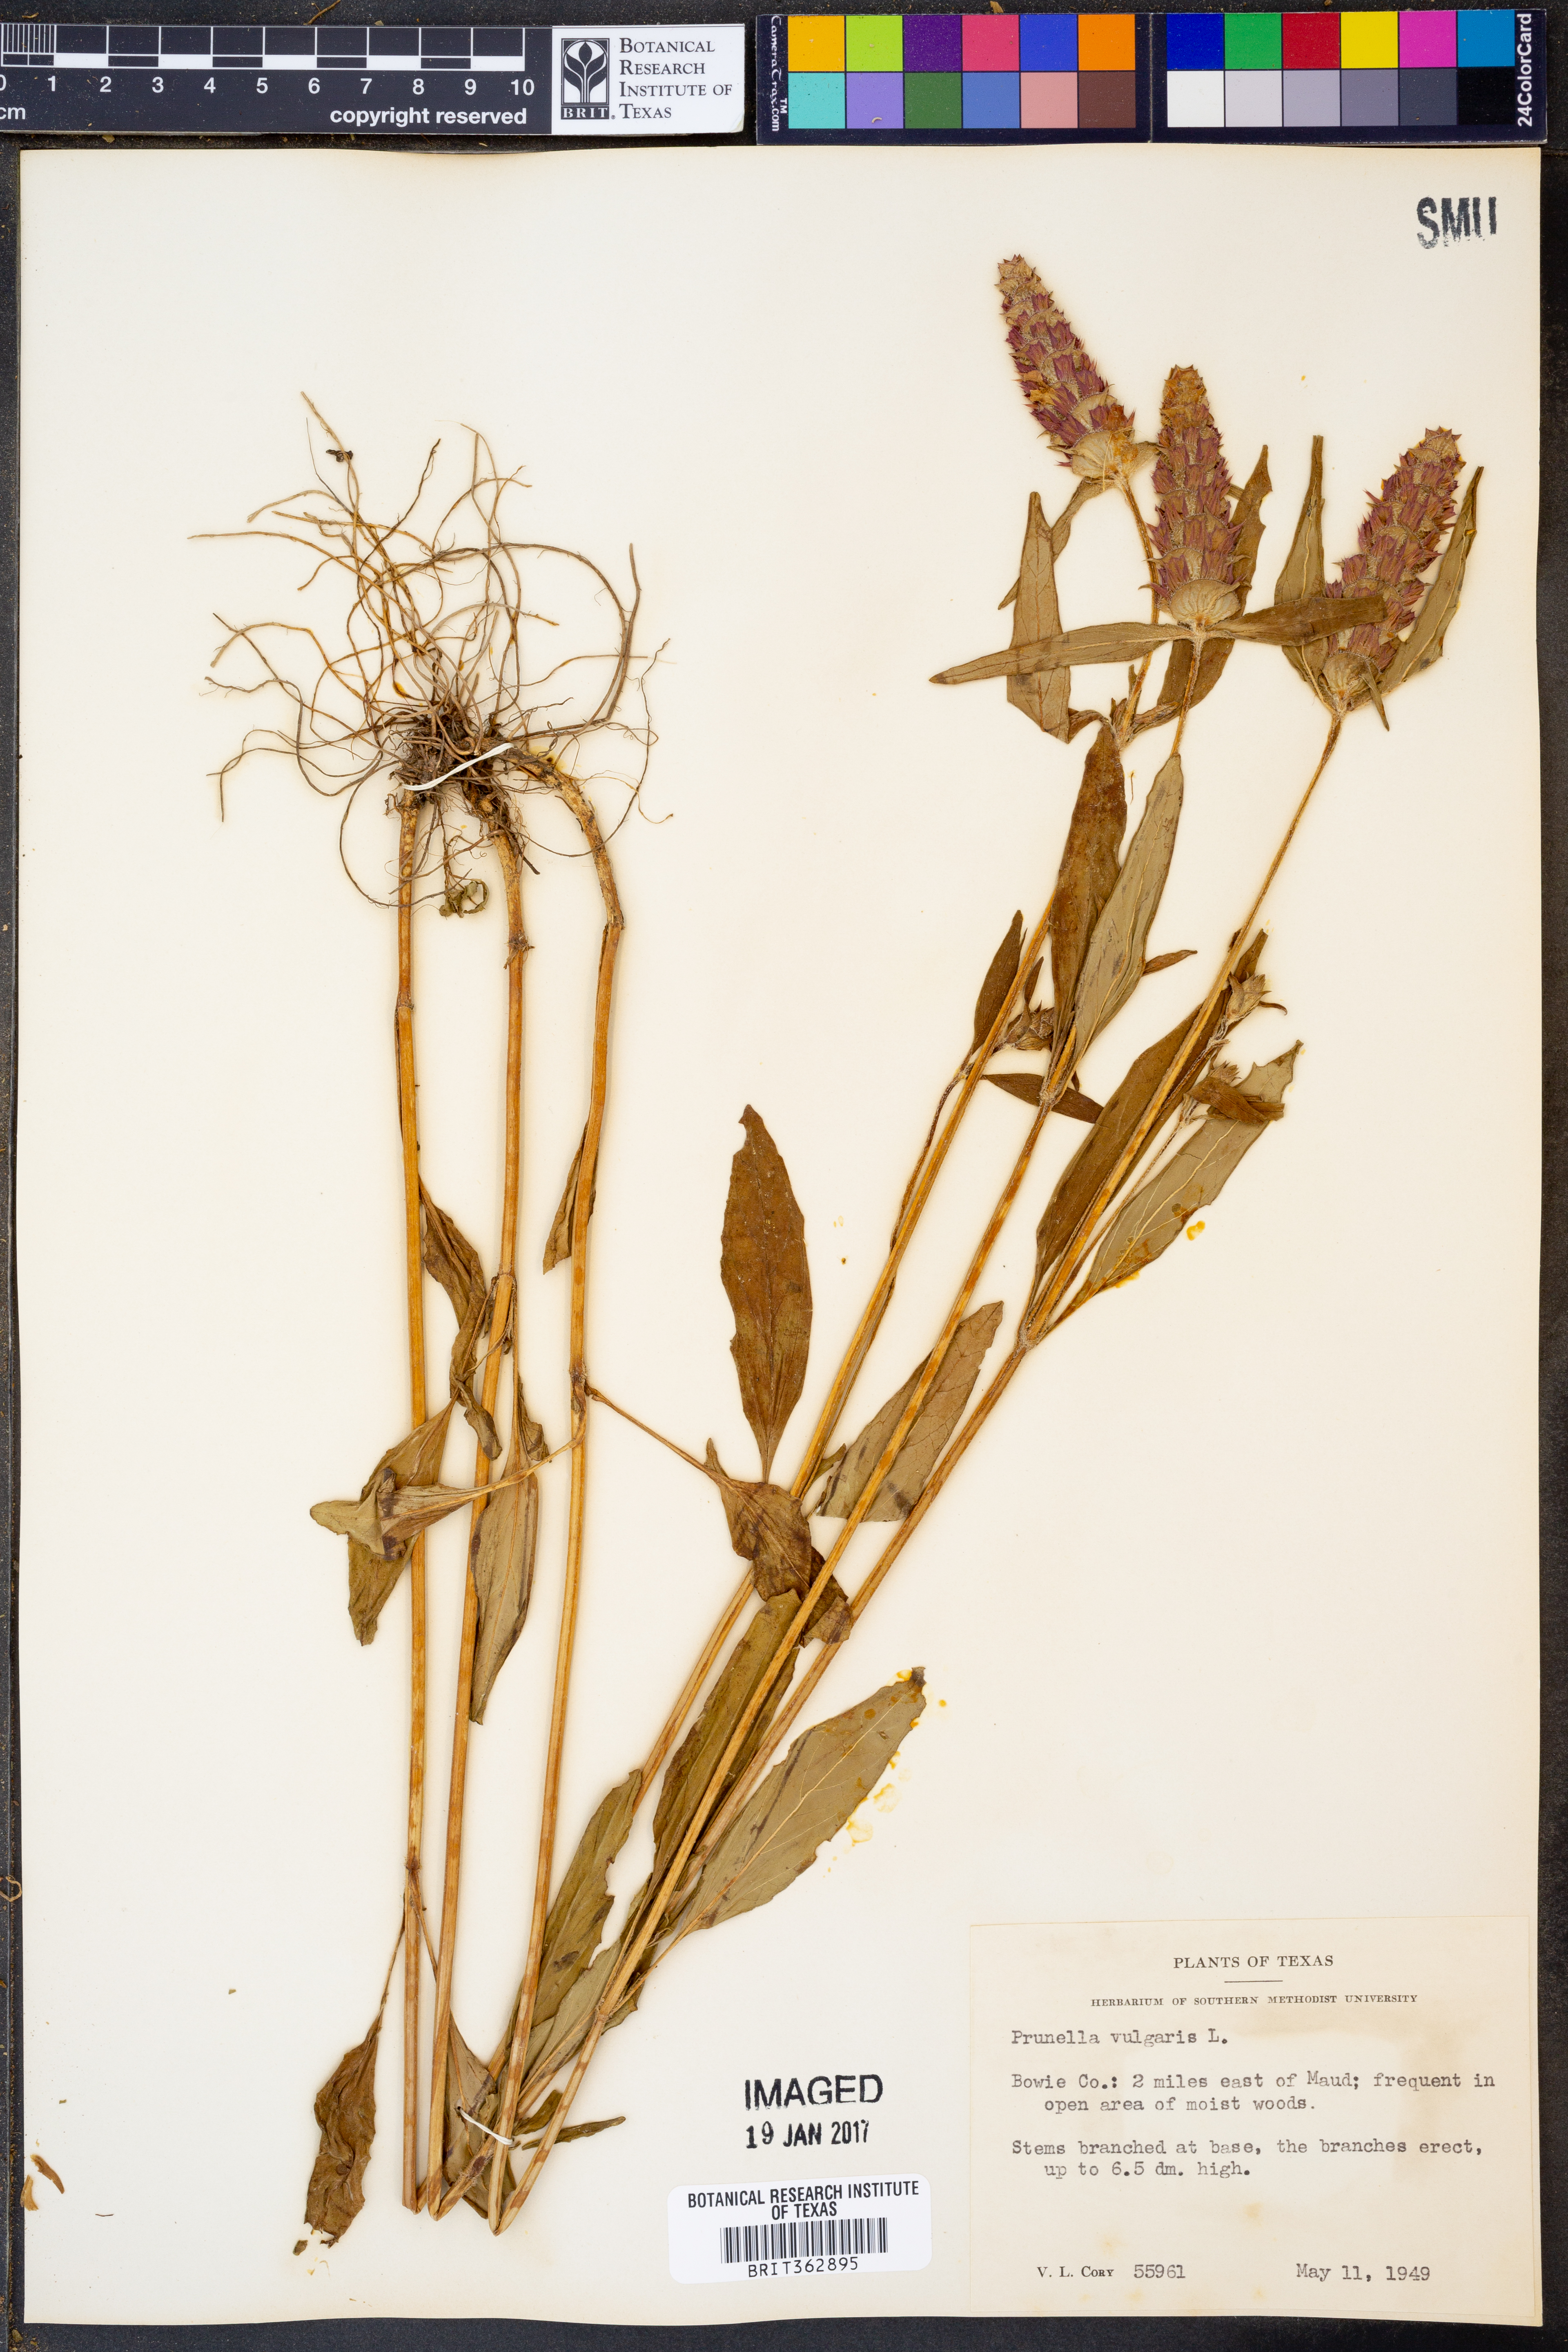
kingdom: Plantae
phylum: Tracheophyta
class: Magnoliopsida
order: Lamiales
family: Lamiaceae
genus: Prunella
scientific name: Prunella vulgaris
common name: Heal-all
